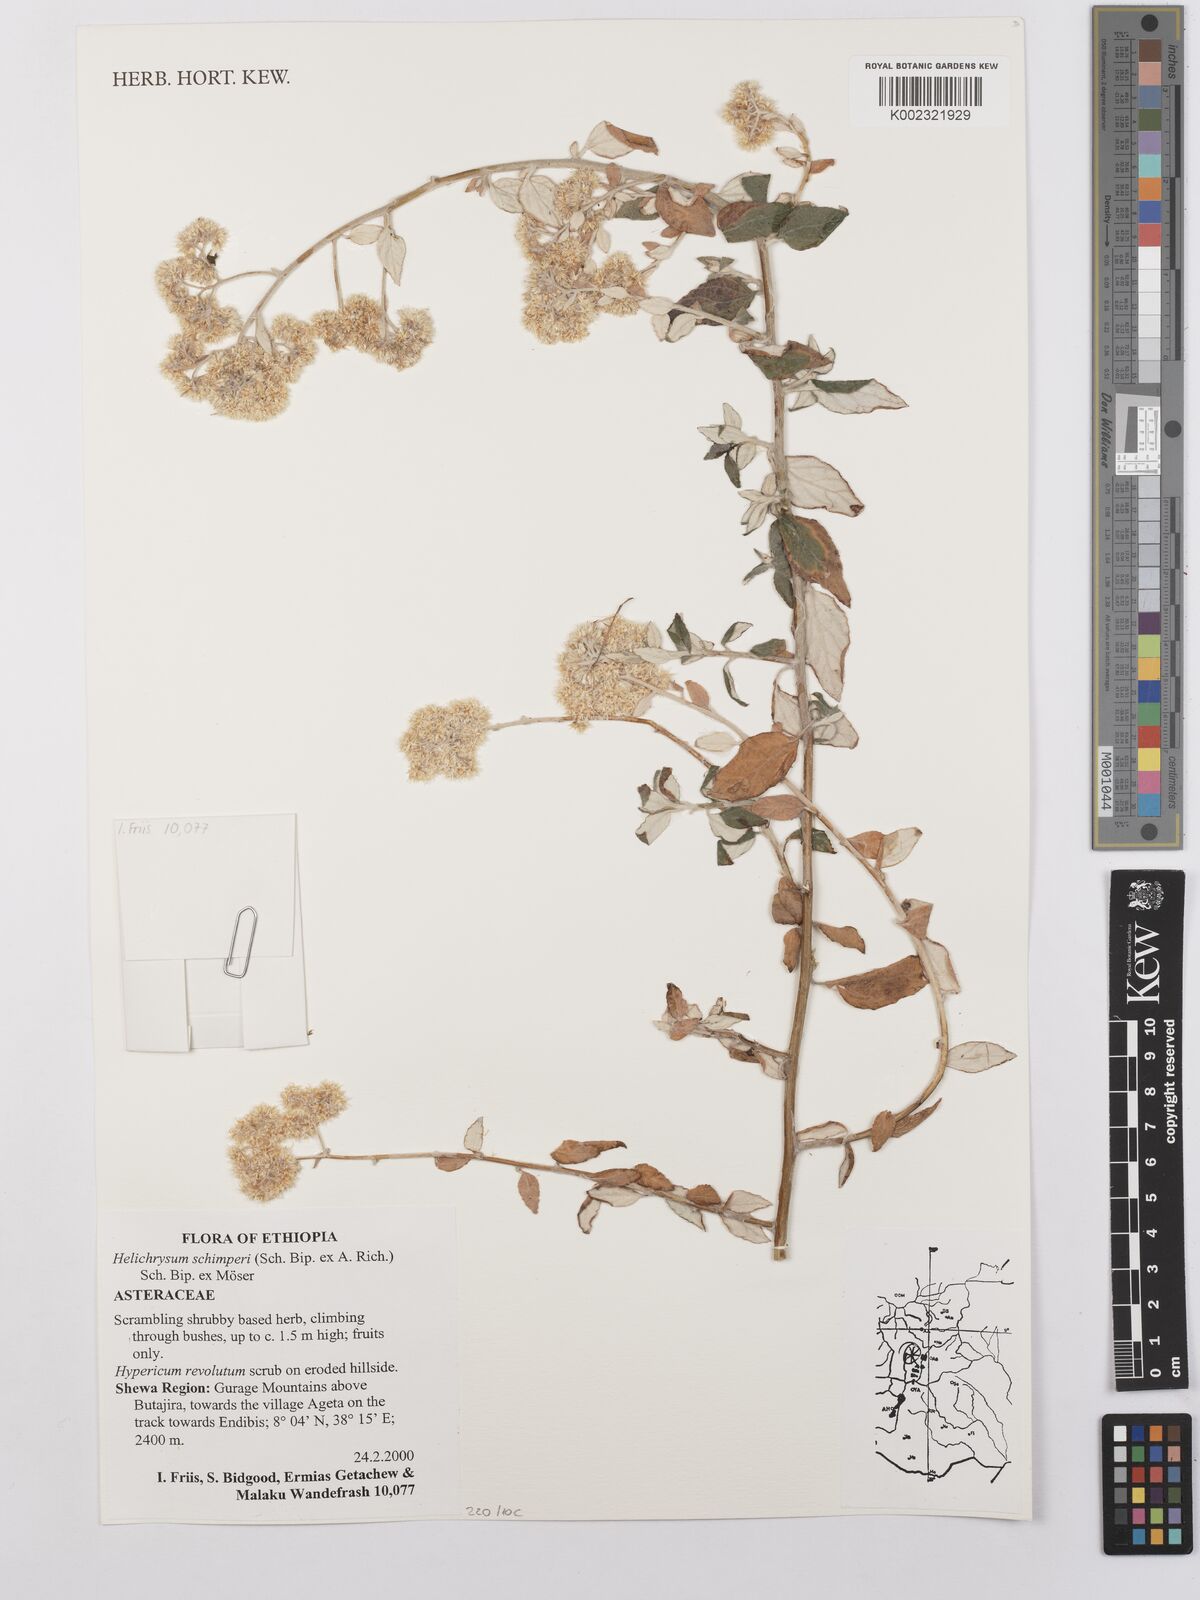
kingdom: Plantae
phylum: Tracheophyta
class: Magnoliopsida
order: Asterales
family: Asteraceae
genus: Helichrysum
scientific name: Helichrysum schimperi
